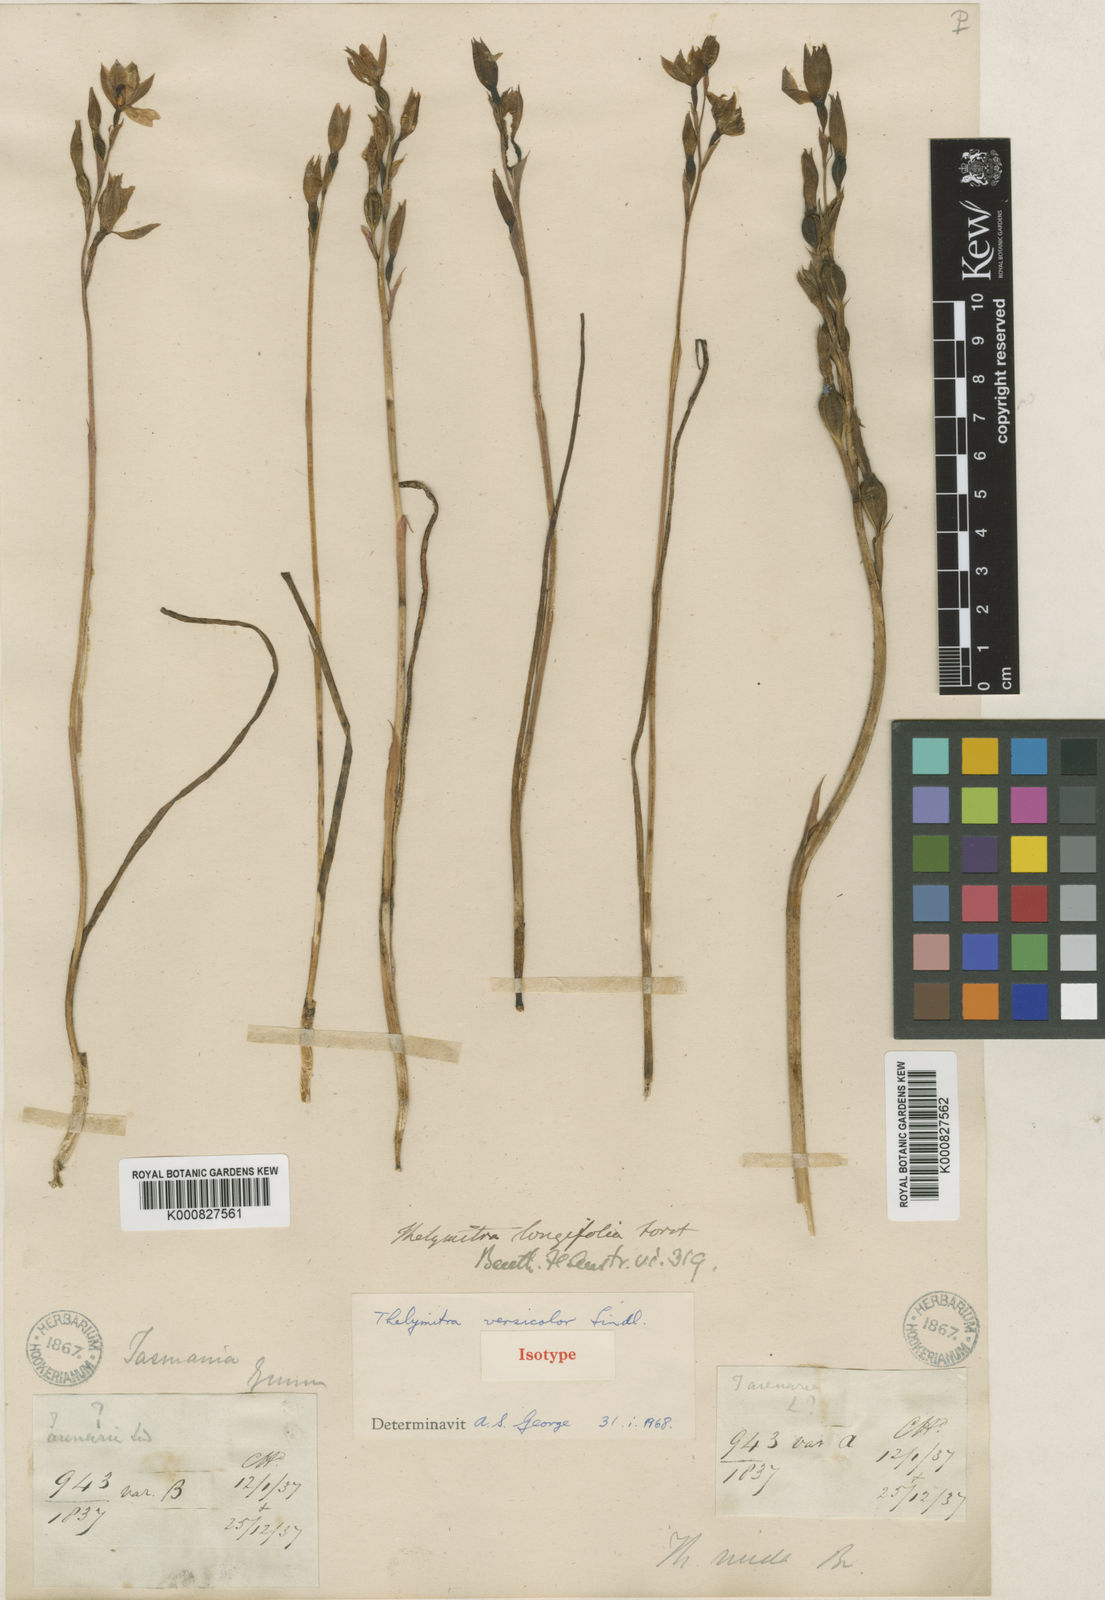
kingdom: Plantae
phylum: Tracheophyta
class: Liliopsida
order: Asparagales
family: Orchidaceae
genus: Thelymitra
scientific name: Thelymitra nuda
